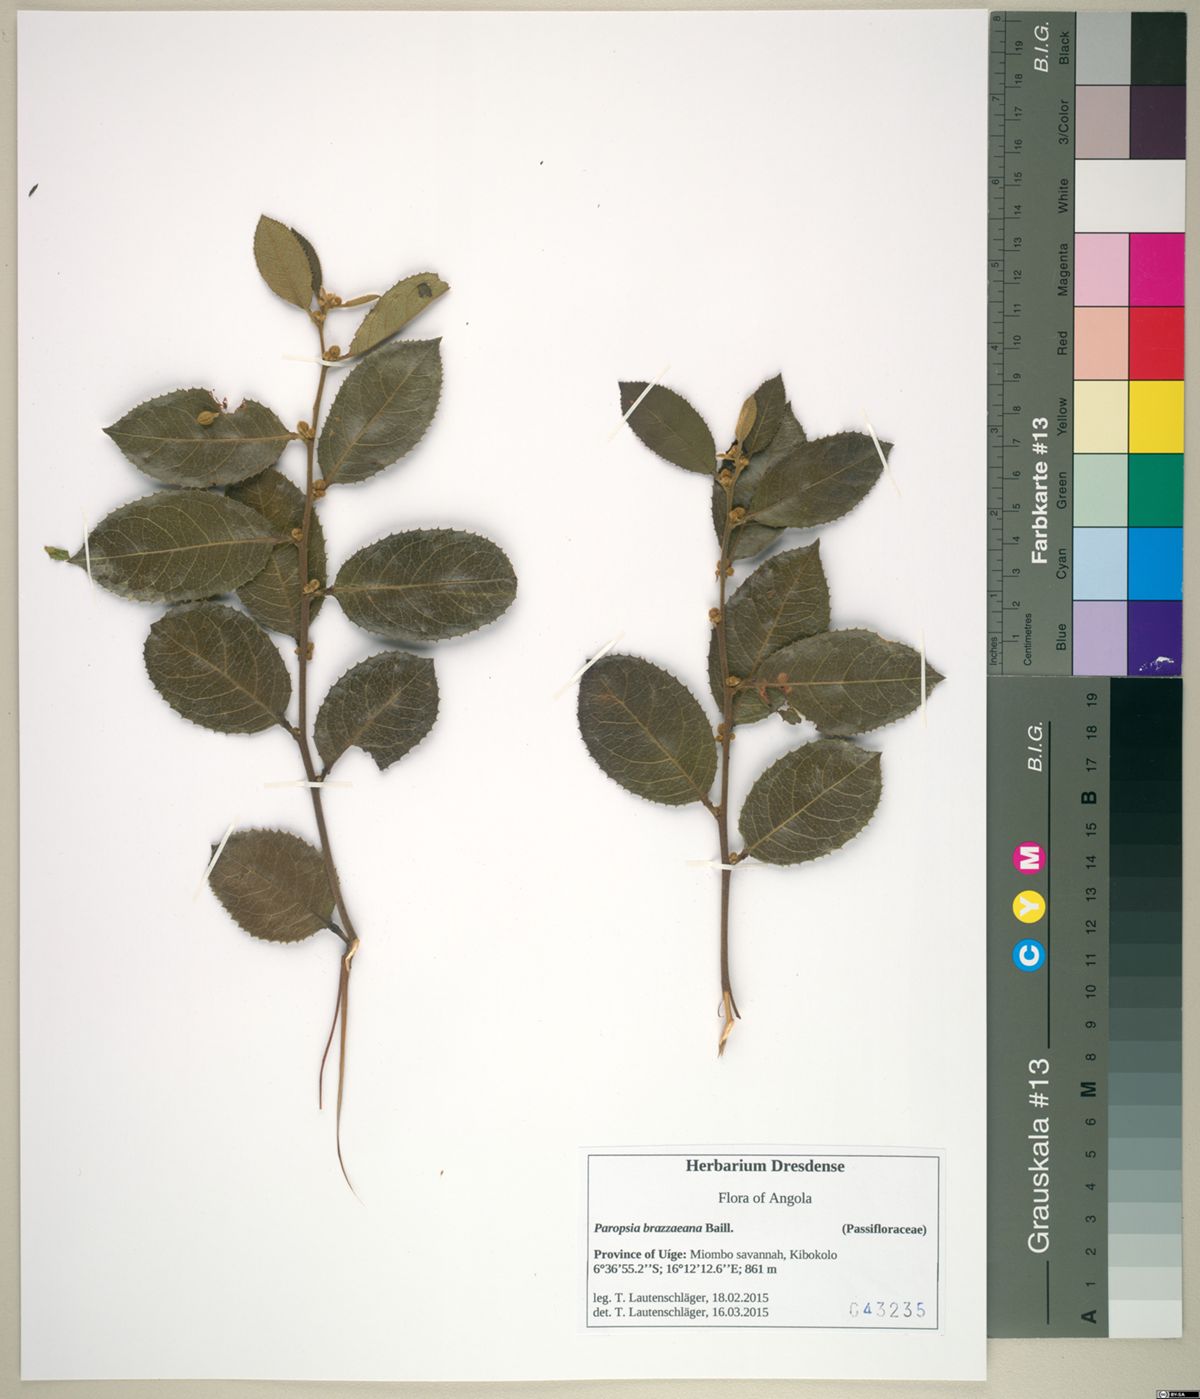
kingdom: Plantae
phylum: Tracheophyta
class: Magnoliopsida
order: Malpighiales
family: Passifloraceae
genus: Paropsia
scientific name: Paropsia brazzaeana
